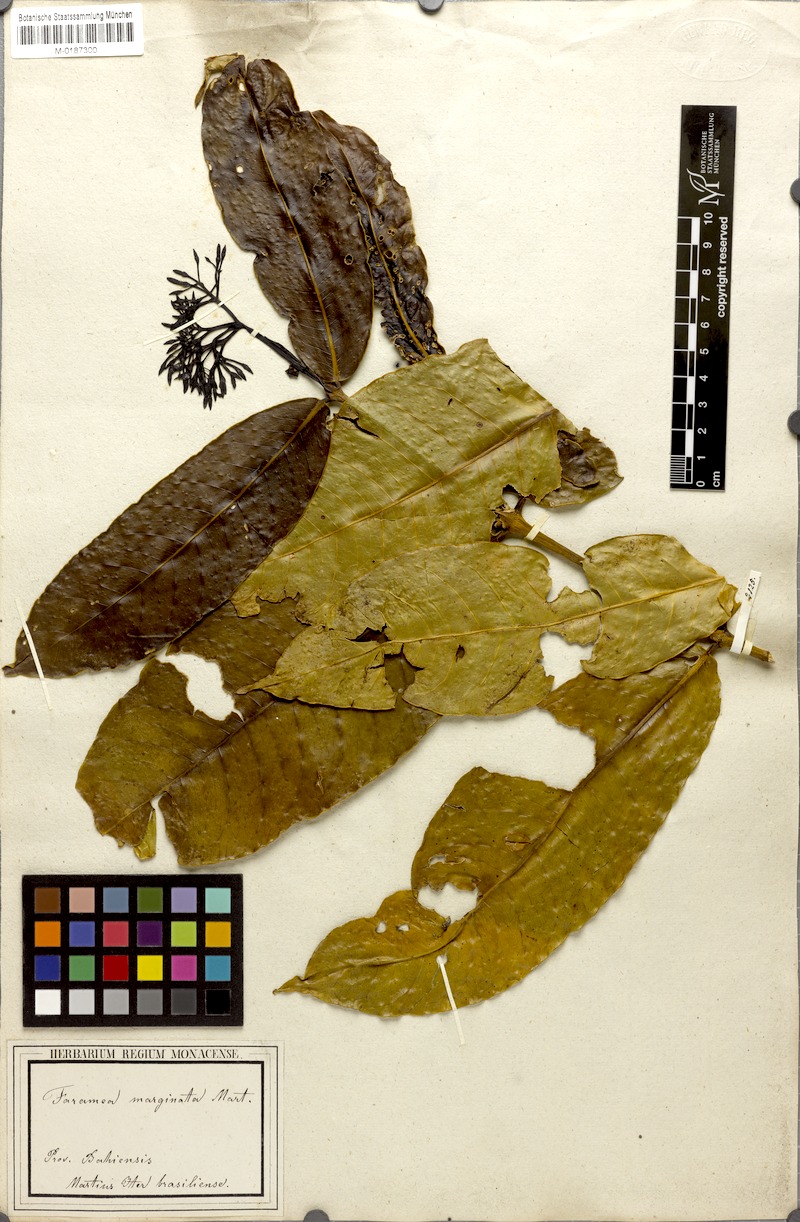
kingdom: Plantae
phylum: Tracheophyta
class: Magnoliopsida
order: Gentianales
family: Rubiaceae
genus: Faramea
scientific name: Faramea martiana
